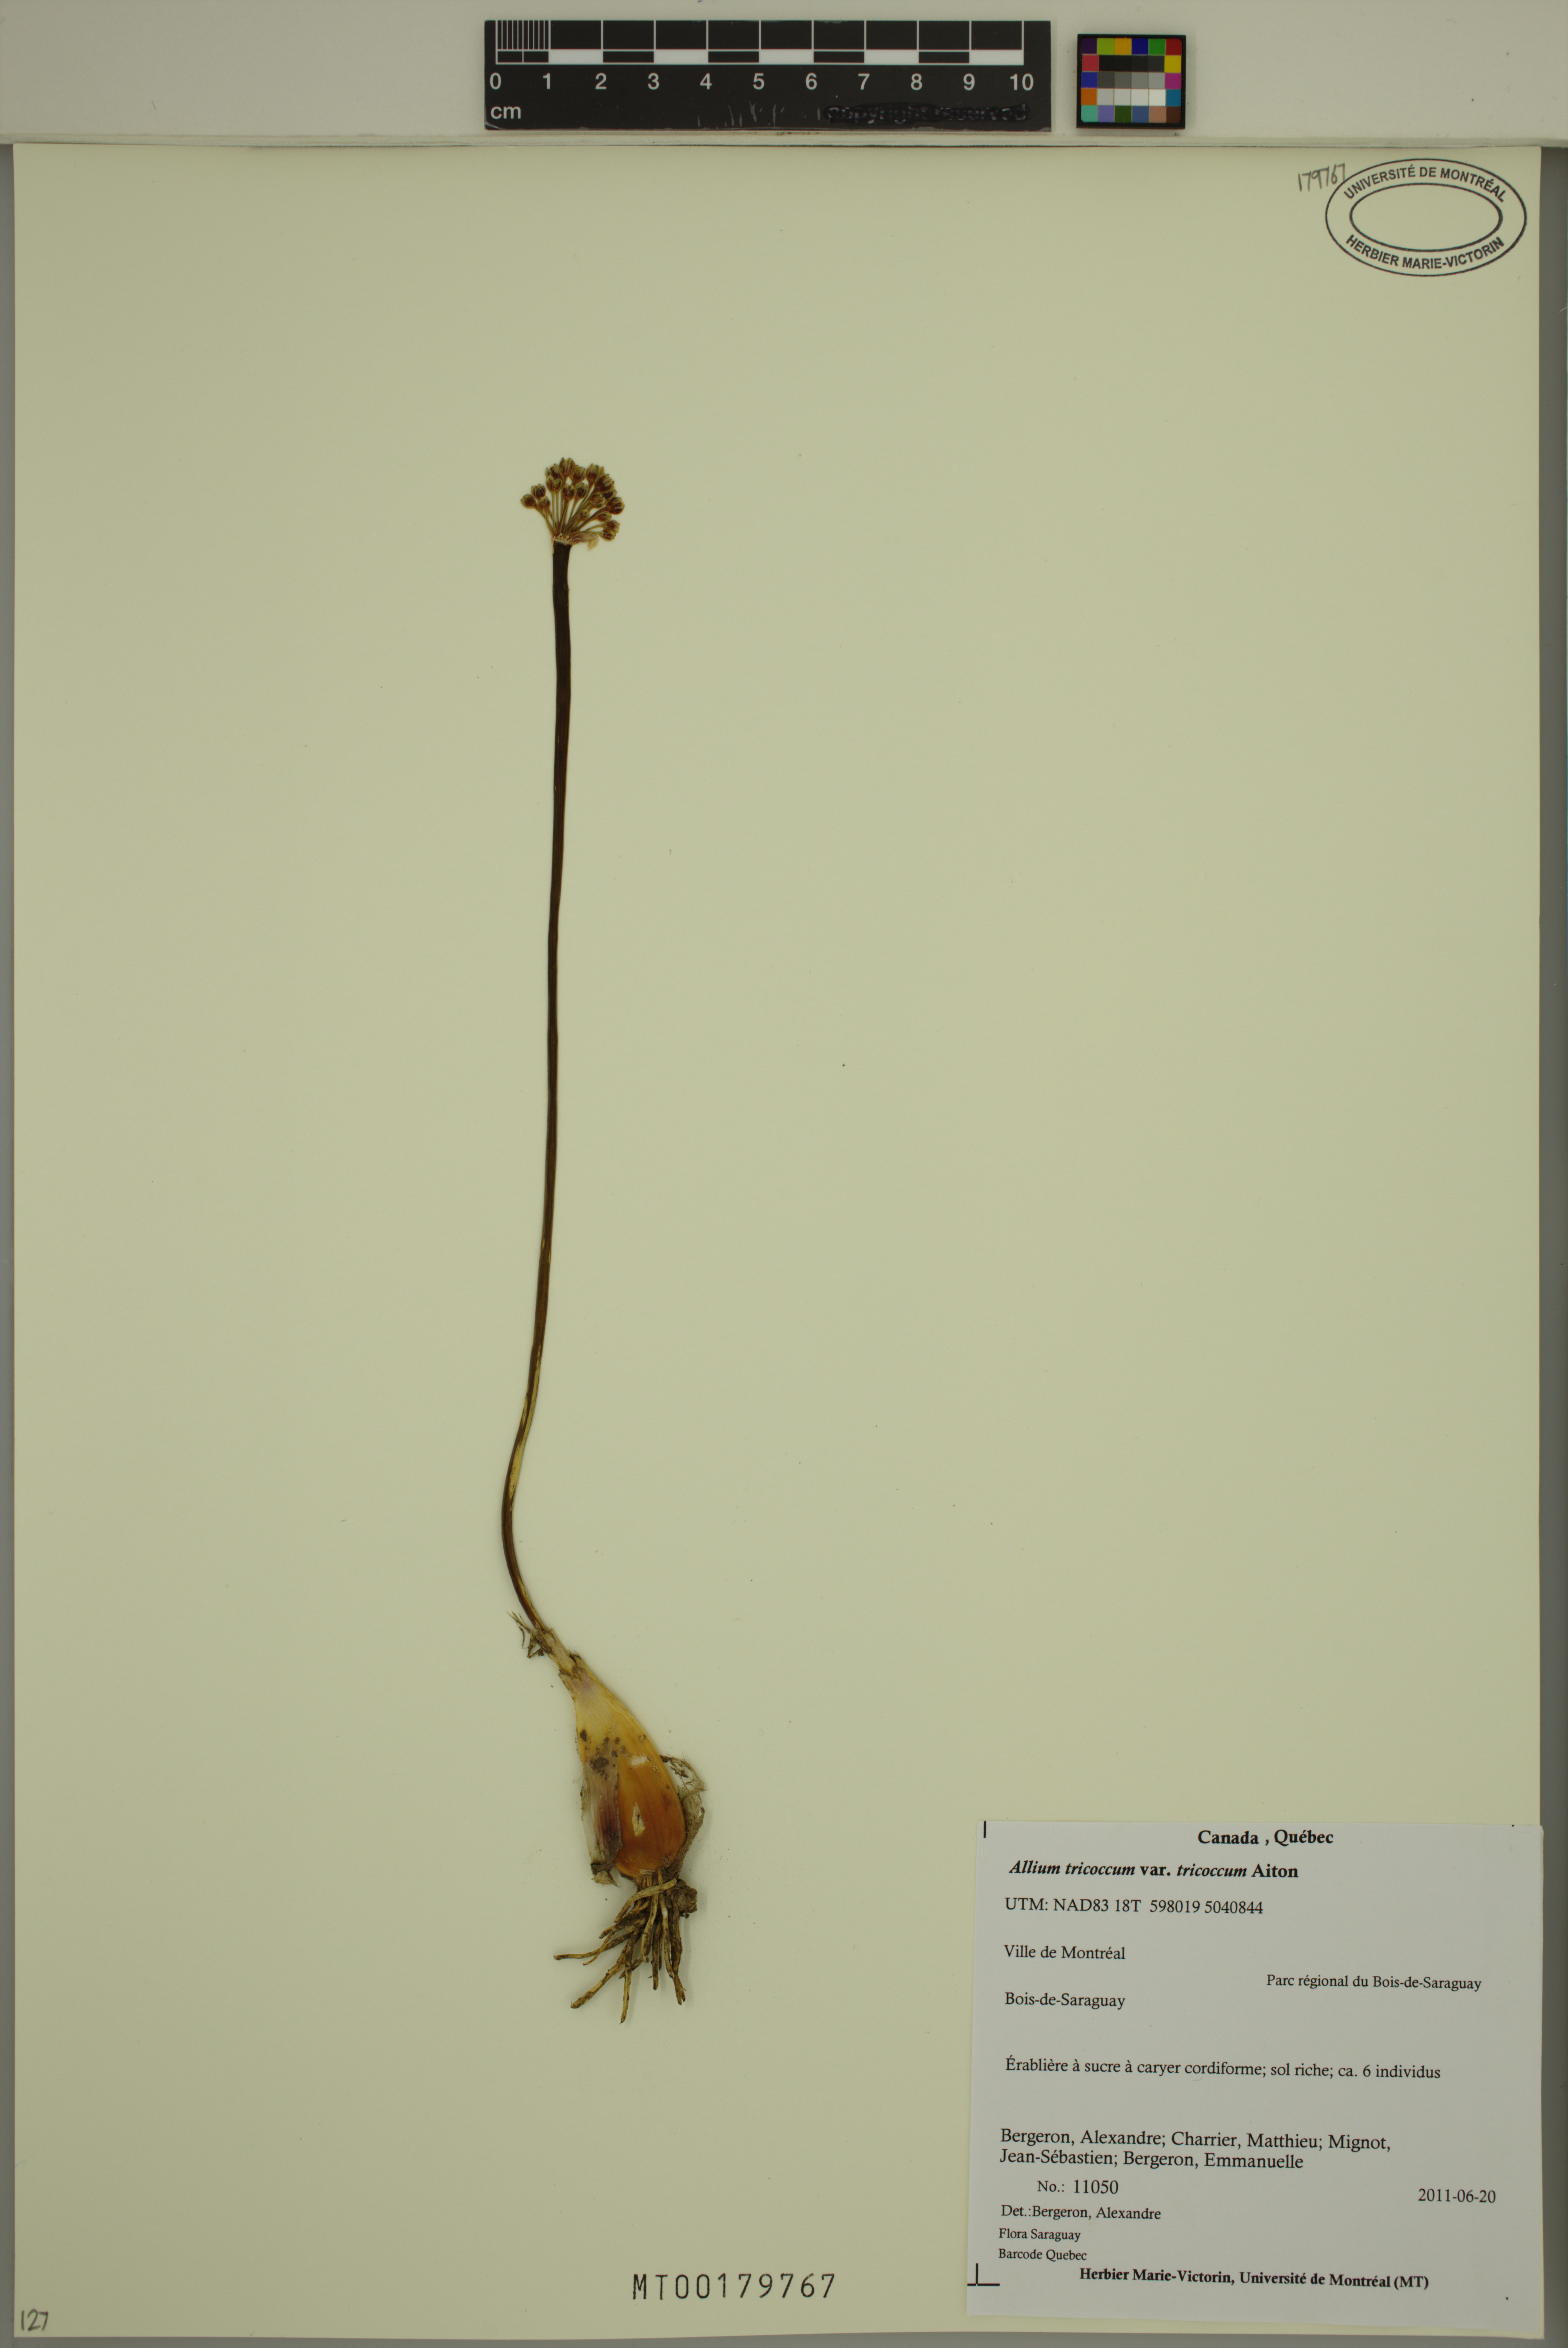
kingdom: Plantae
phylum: Tracheophyta
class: Liliopsida
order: Asparagales
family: Amaryllidaceae
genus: Allium
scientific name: Allium tricoccum
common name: Ramp
